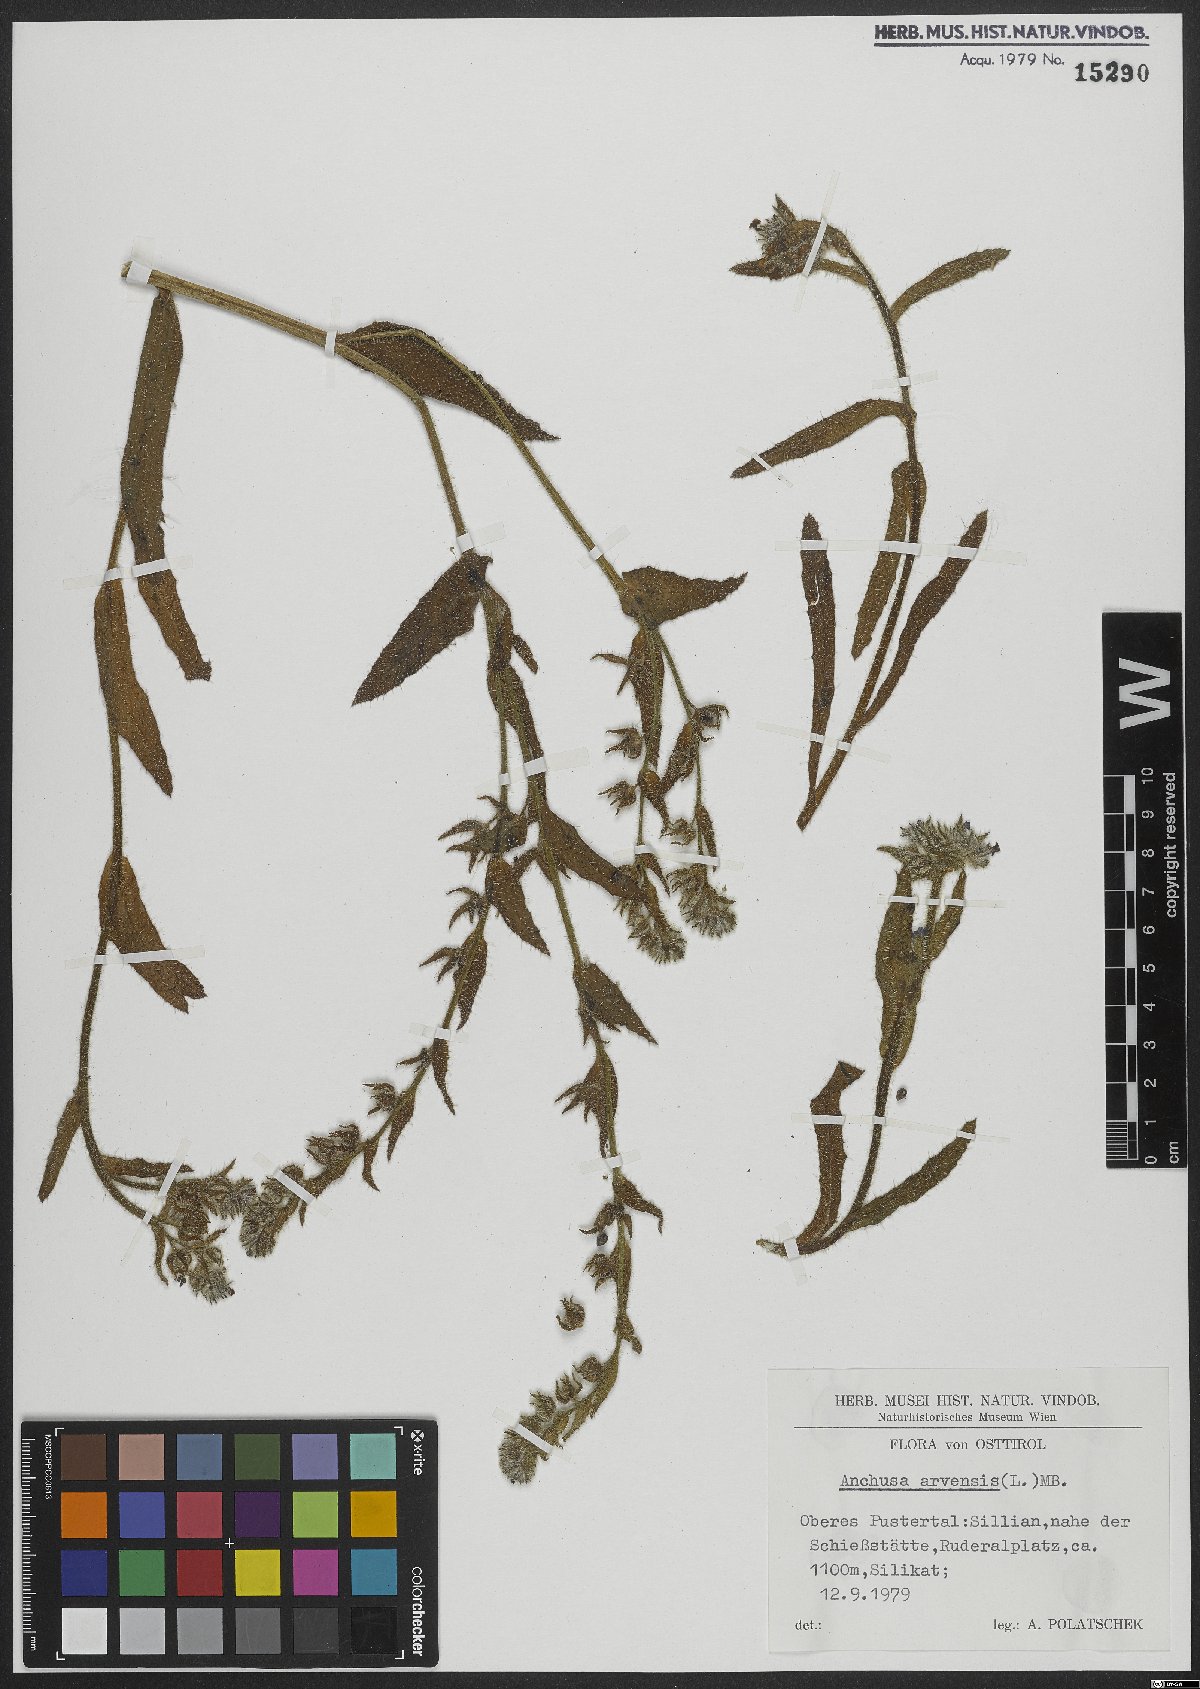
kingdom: Plantae
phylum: Tracheophyta
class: Magnoliopsida
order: Boraginales
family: Boraginaceae
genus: Lycopsis
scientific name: Lycopsis arvensis
